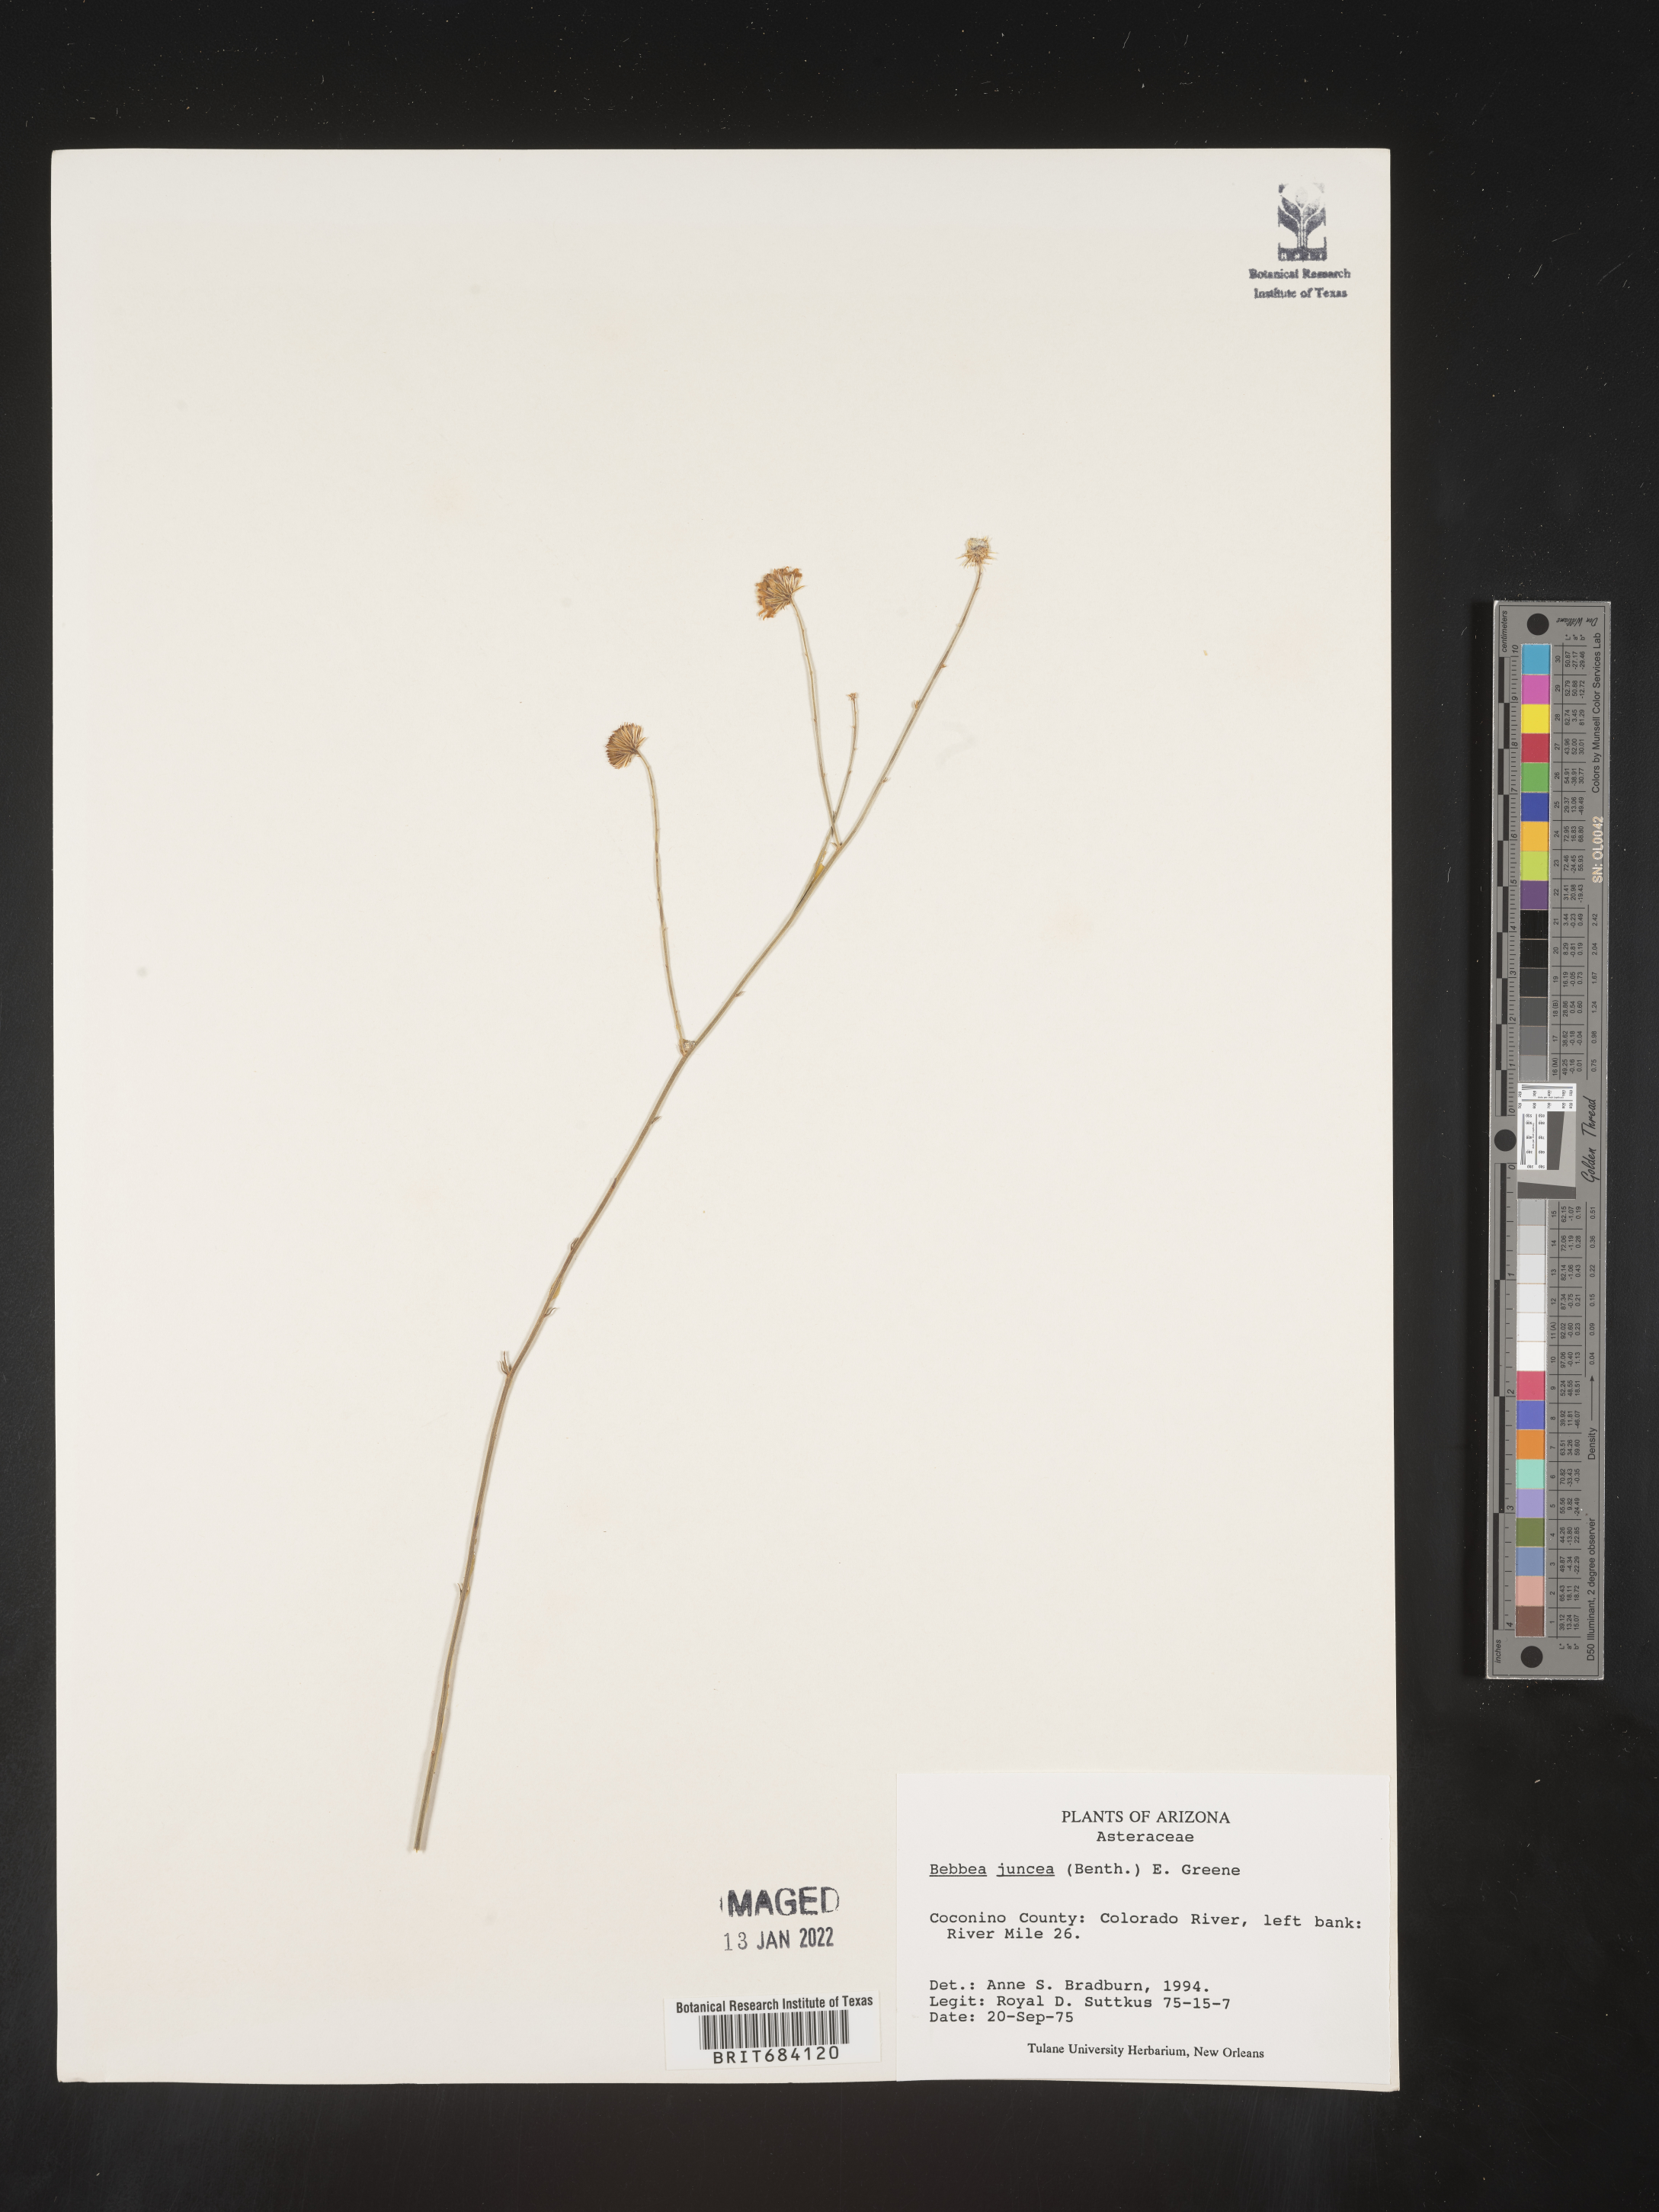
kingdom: Plantae
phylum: Tracheophyta
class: Magnoliopsida
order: Asterales
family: Asteraceae
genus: Bebbia
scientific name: Bebbia
